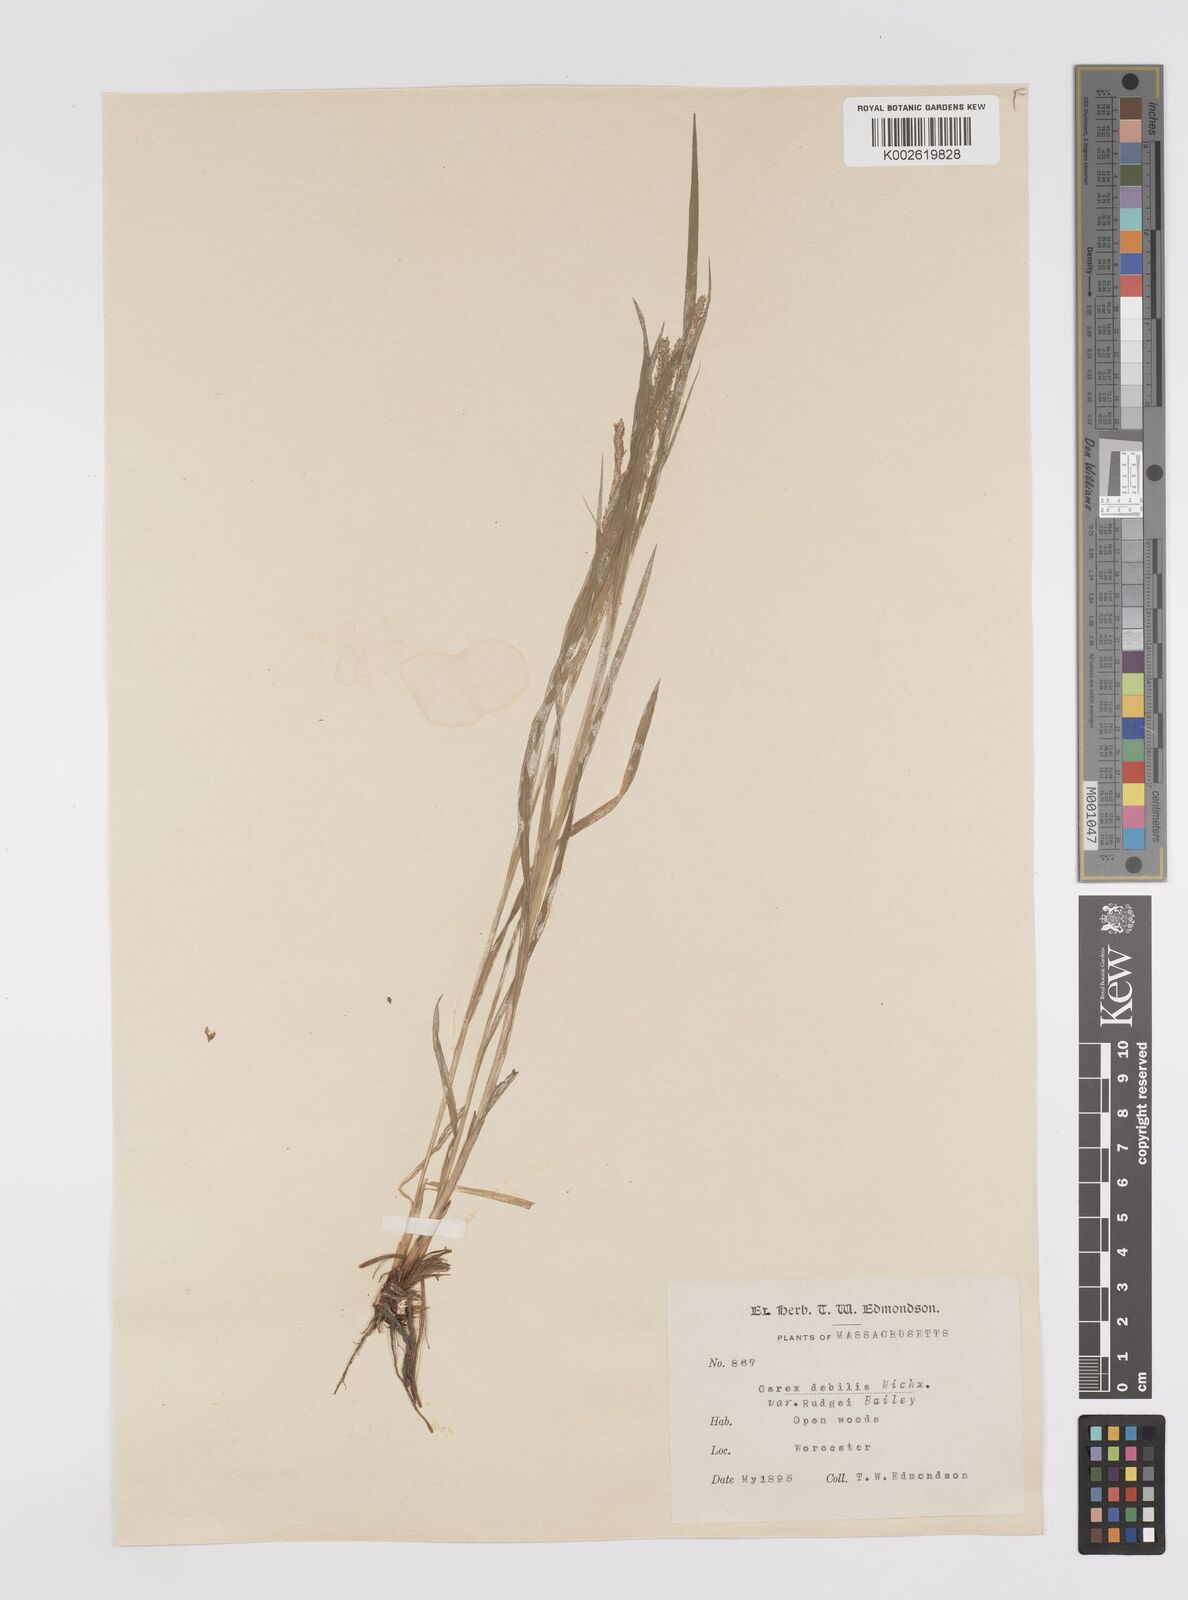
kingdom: Plantae
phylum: Tracheophyta
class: Liliopsida
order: Poales
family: Cyperaceae
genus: Carex
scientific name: Carex debilis
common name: White-edge sedge
